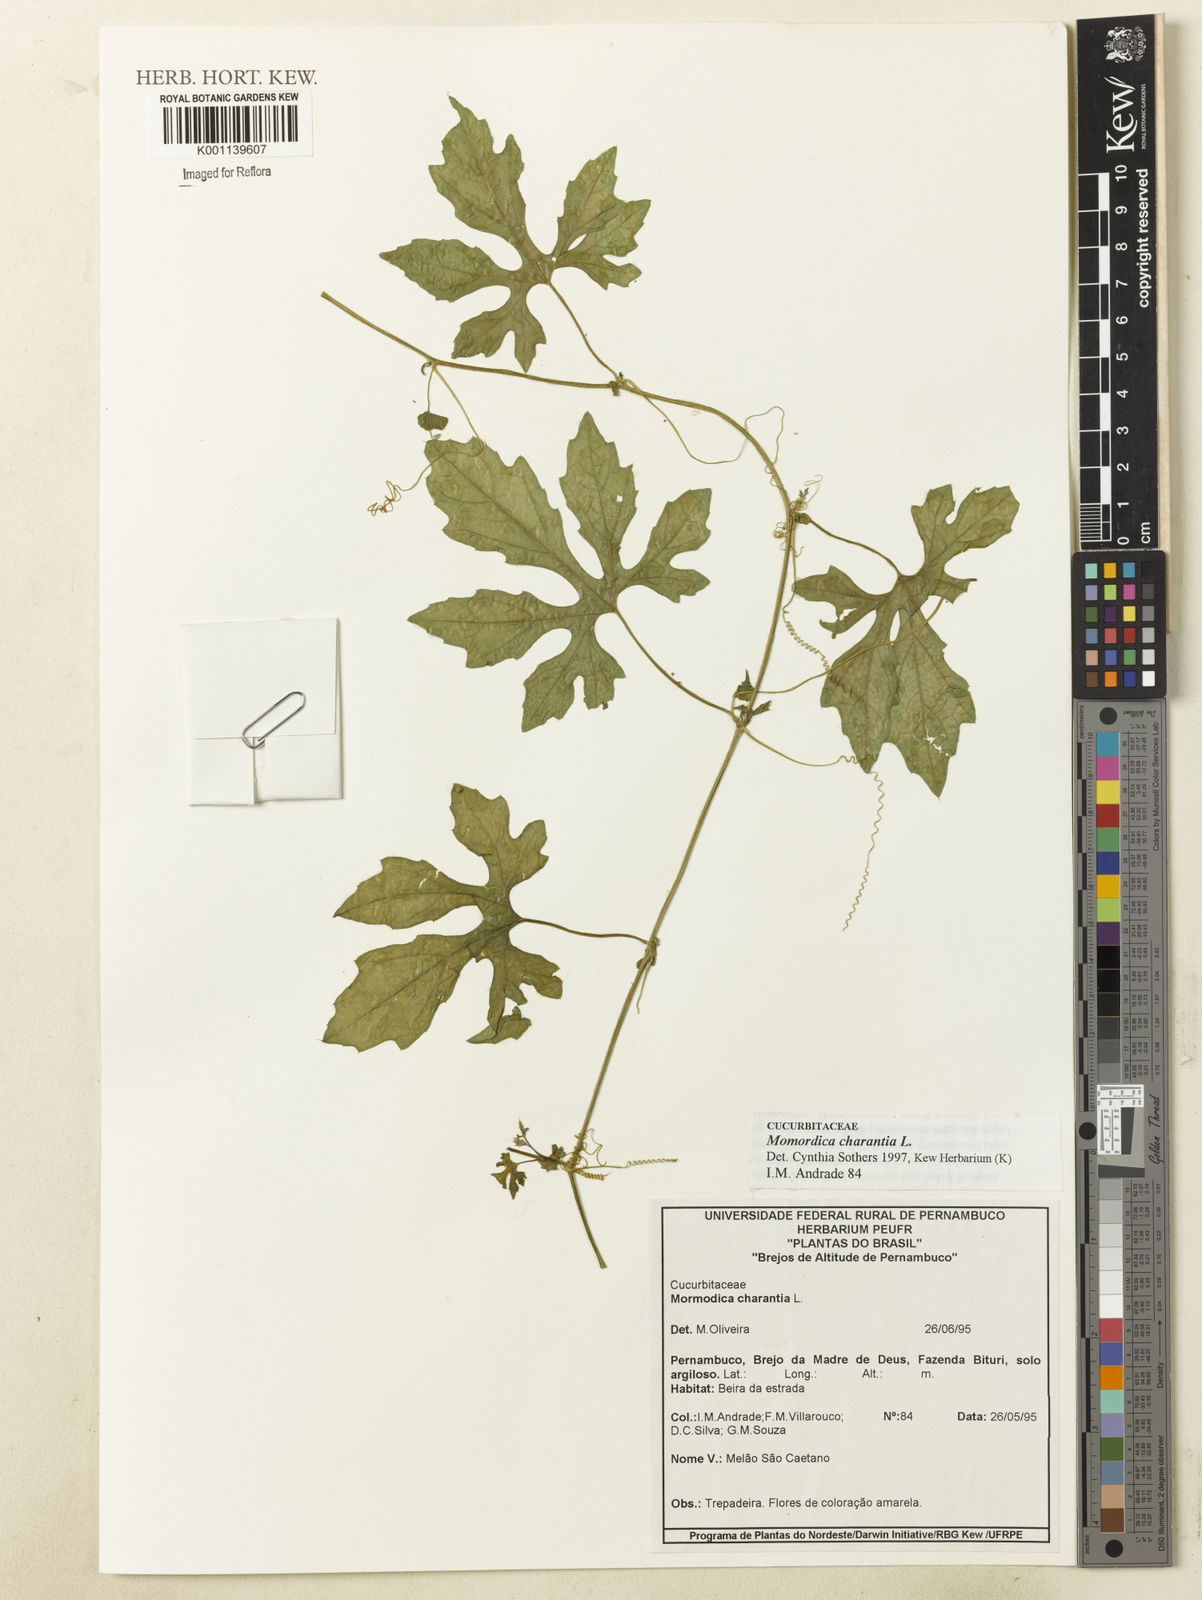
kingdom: Plantae
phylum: Tracheophyta
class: Magnoliopsida
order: Cucurbitales
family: Cucurbitaceae
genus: Momordica
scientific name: Momordica charantia
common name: Balsampear
